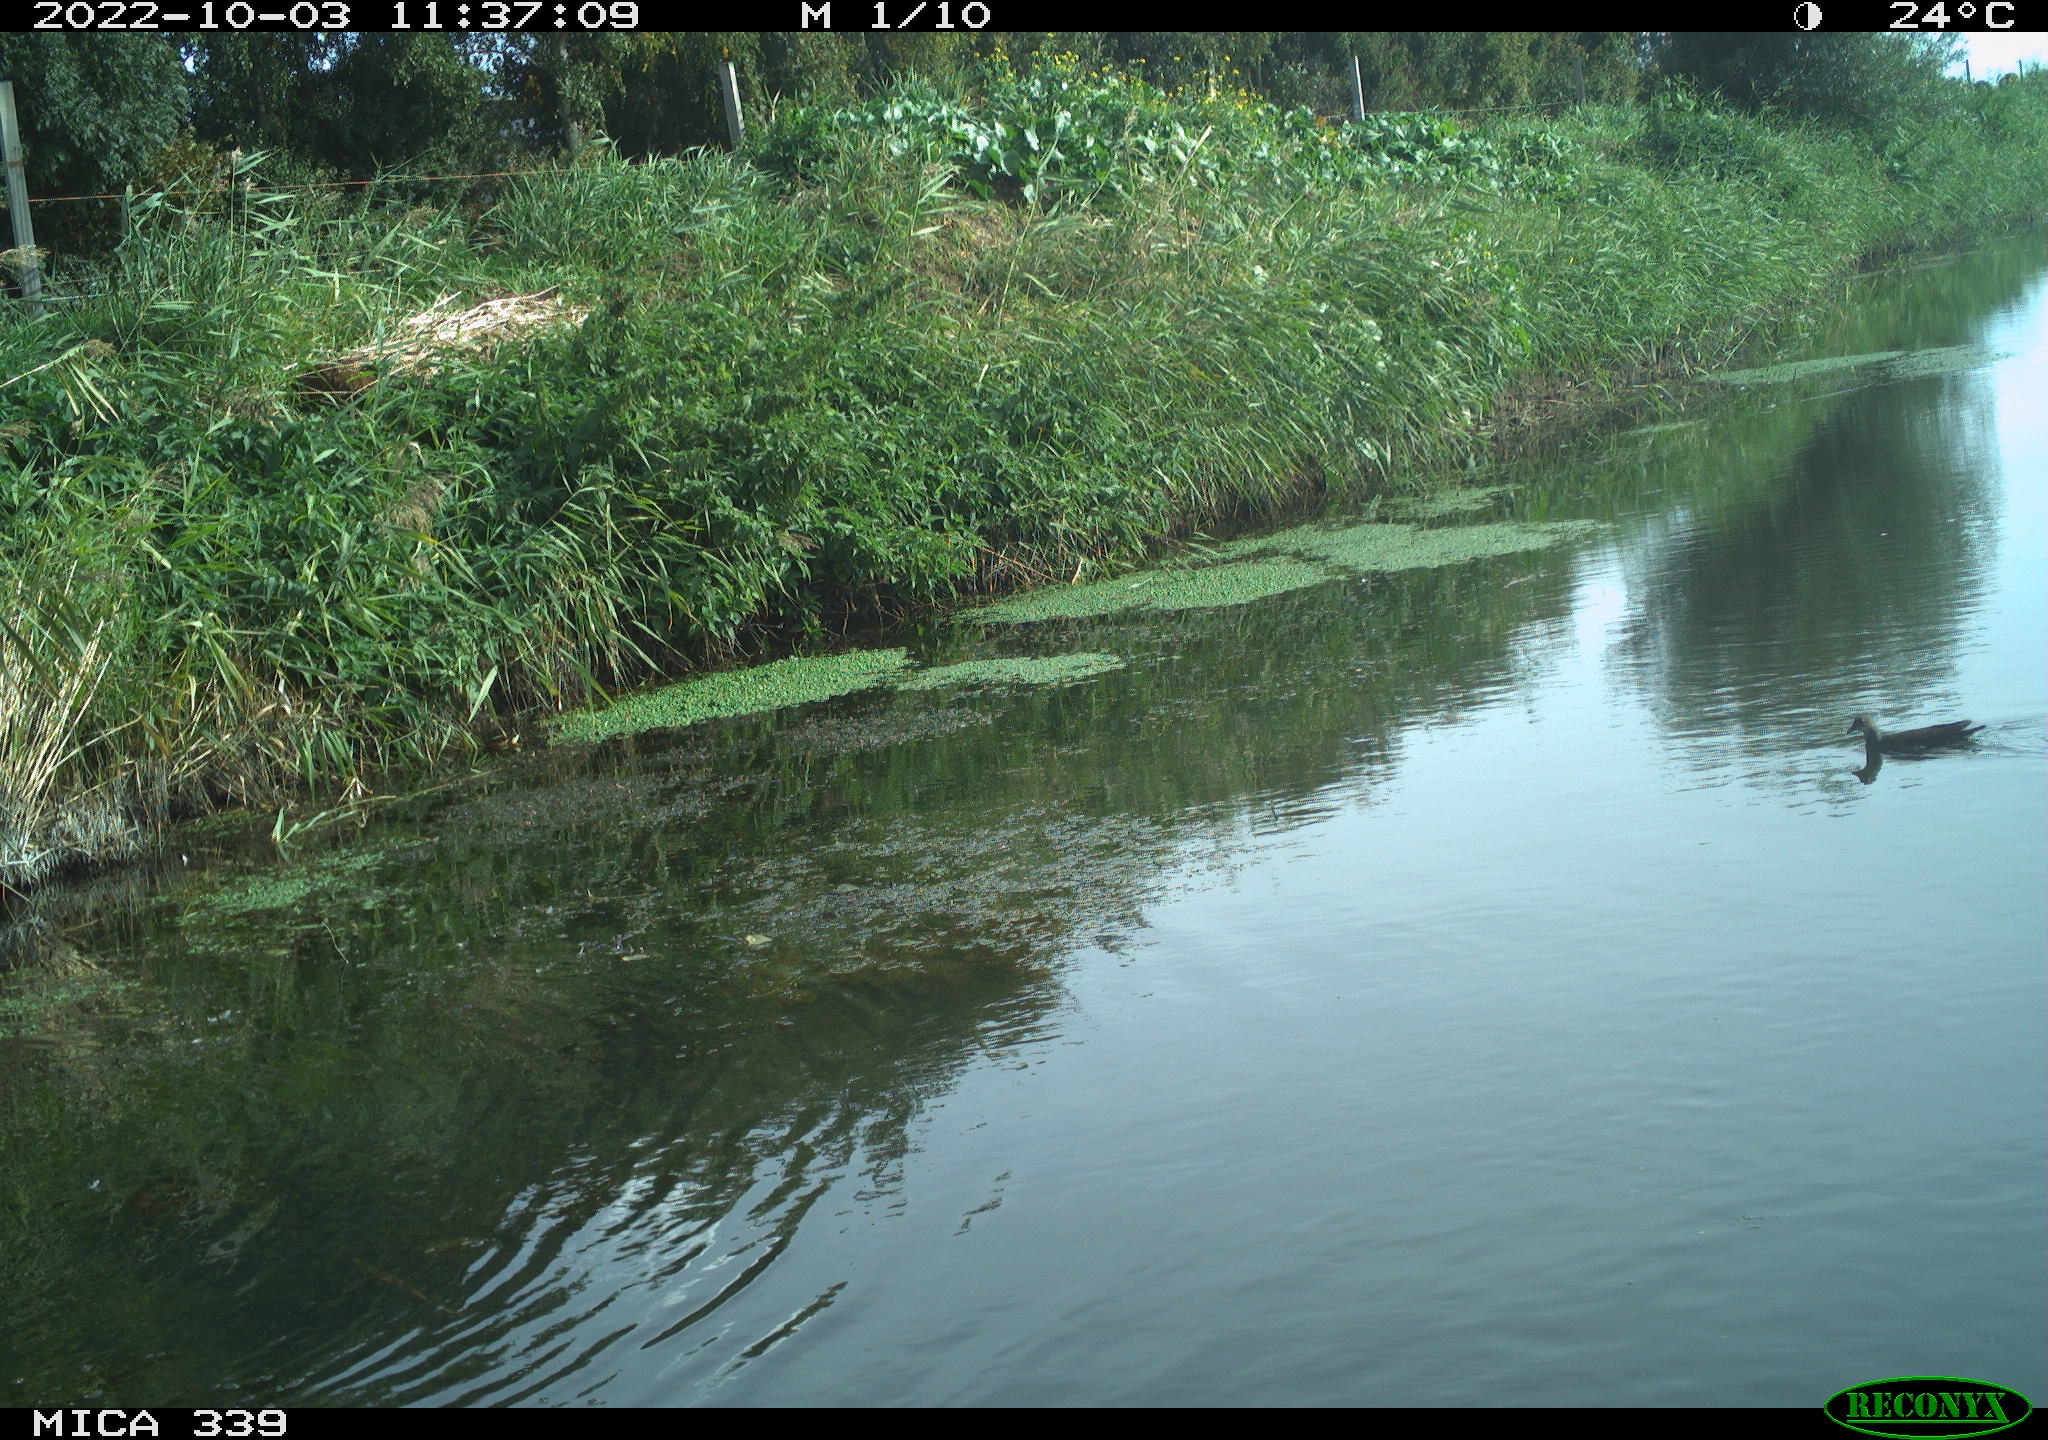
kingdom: Animalia
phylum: Chordata
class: Aves
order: Gruiformes
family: Rallidae
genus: Gallinula
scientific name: Gallinula chloropus
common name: Common moorhen
